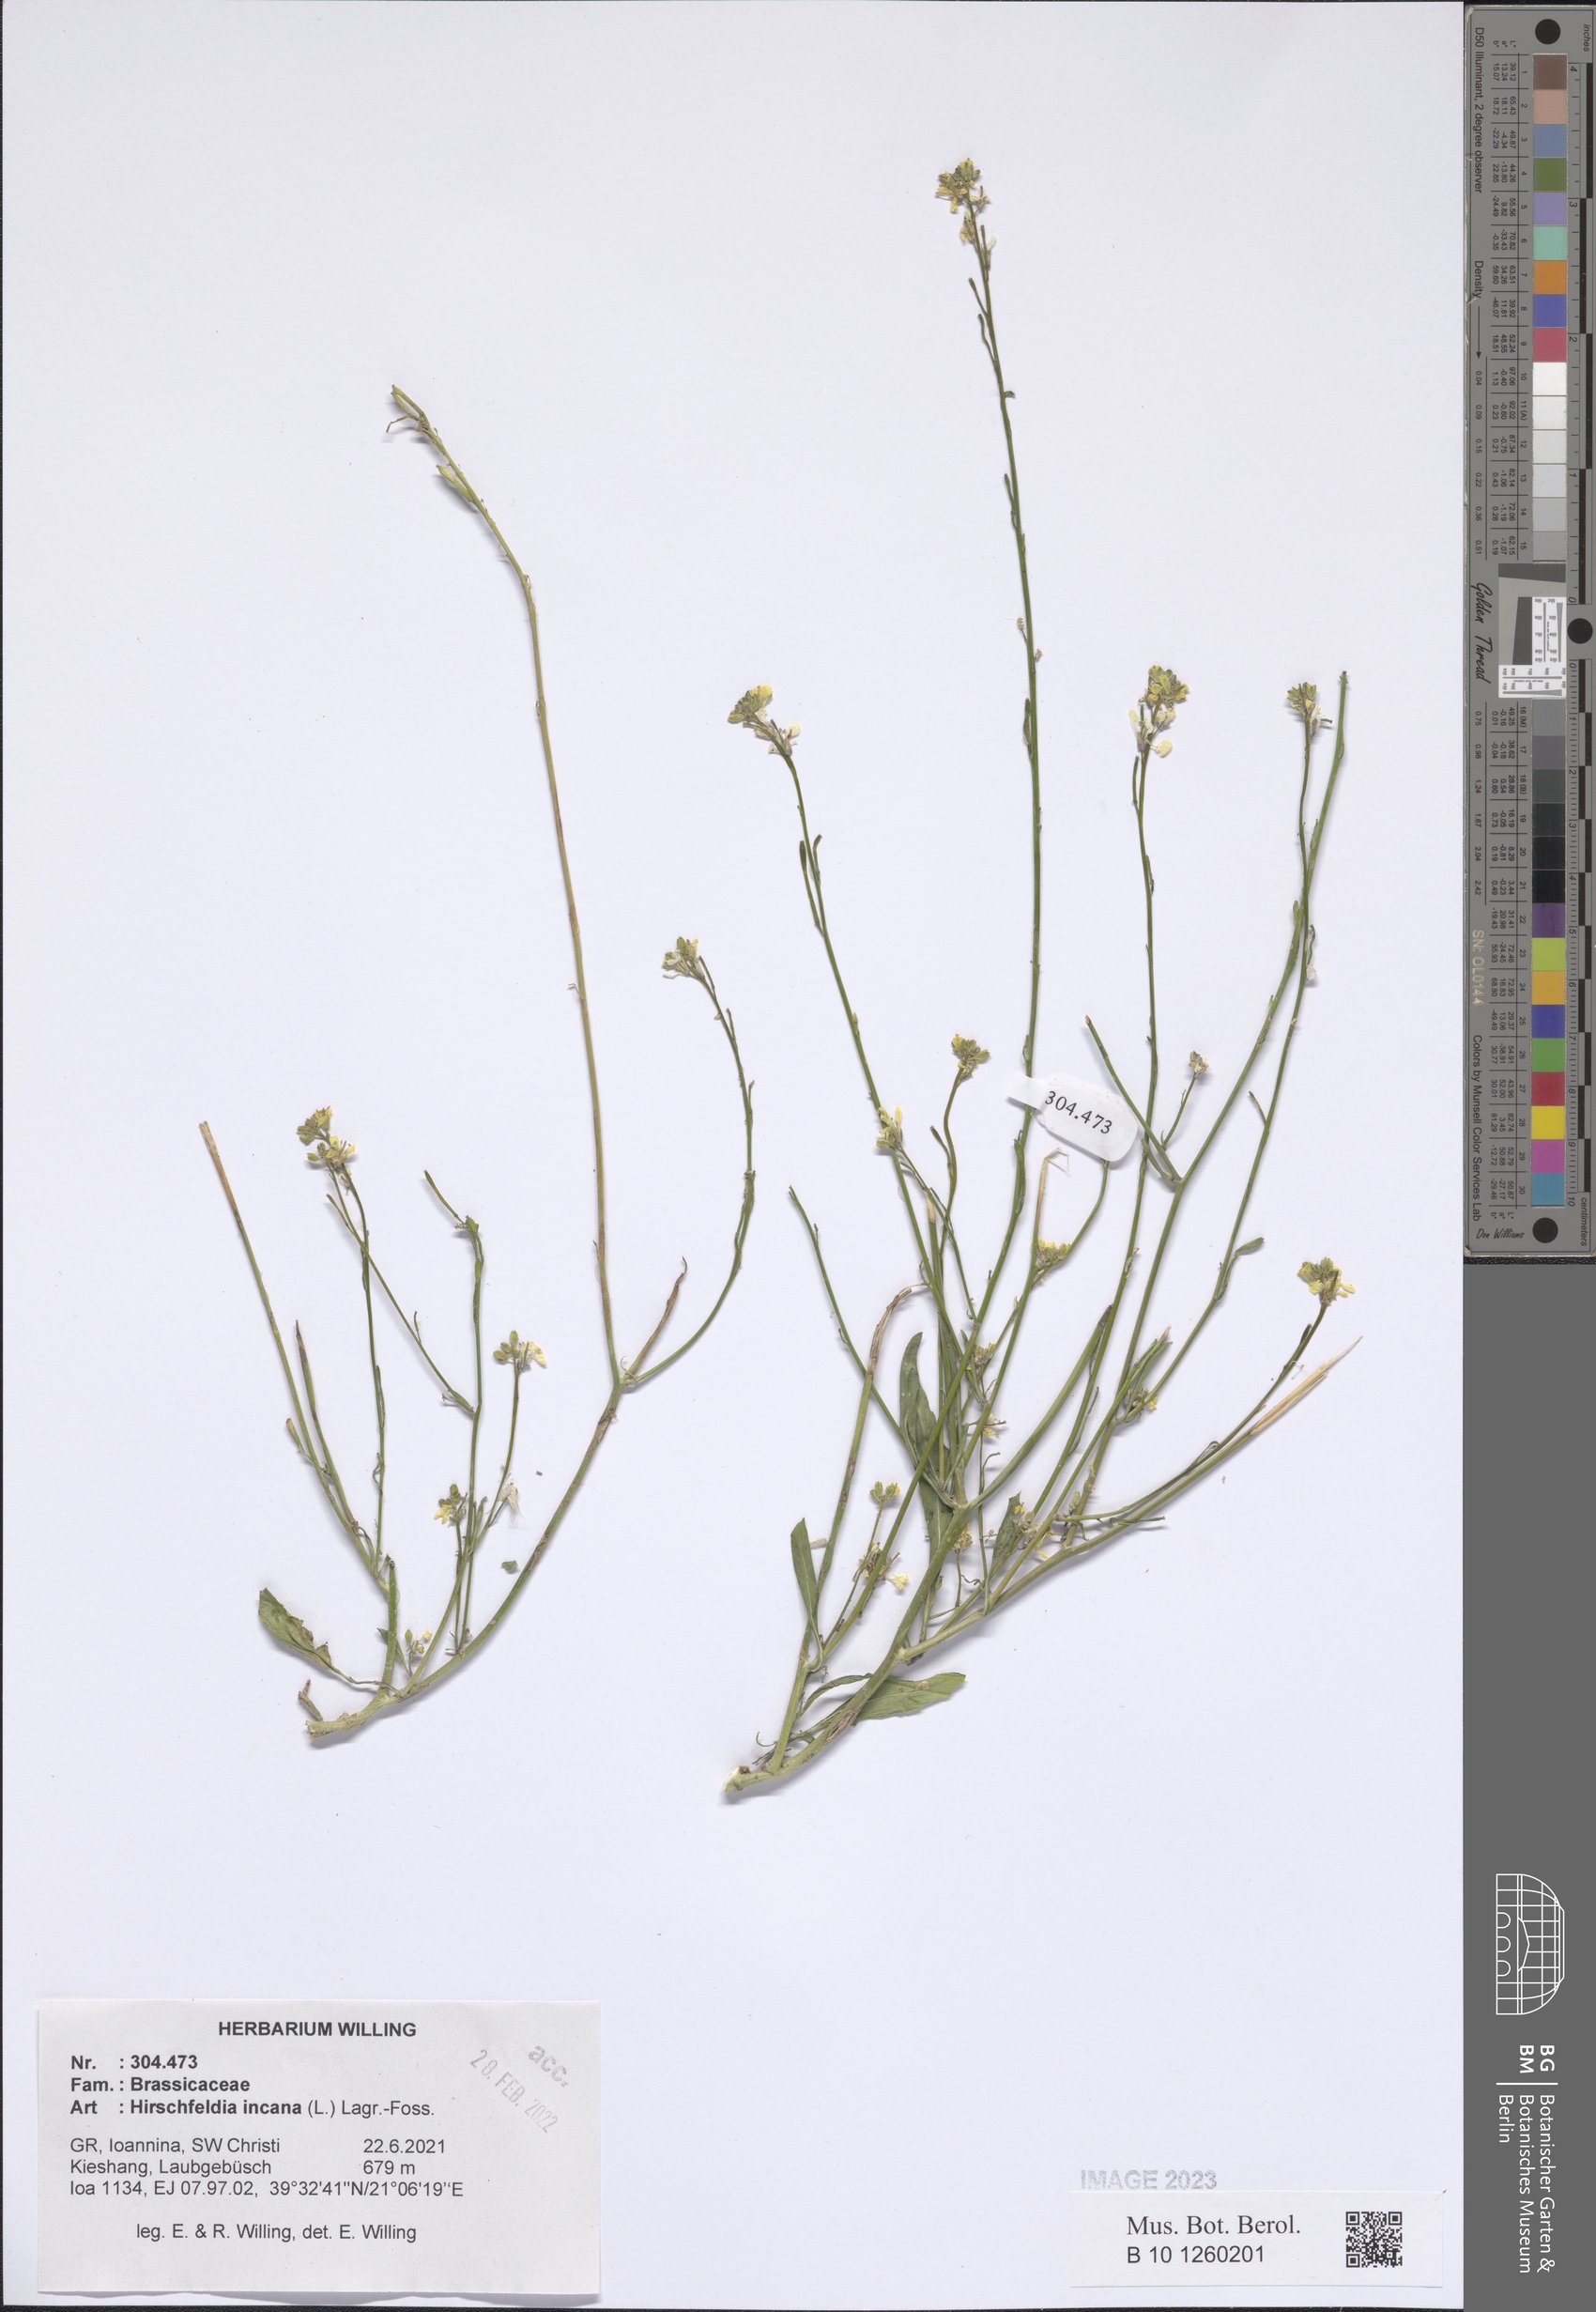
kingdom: Plantae
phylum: Tracheophyta
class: Magnoliopsida
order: Brassicales
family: Brassicaceae
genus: Hirschfeldia
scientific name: Hirschfeldia incana
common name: Hoary mustard
